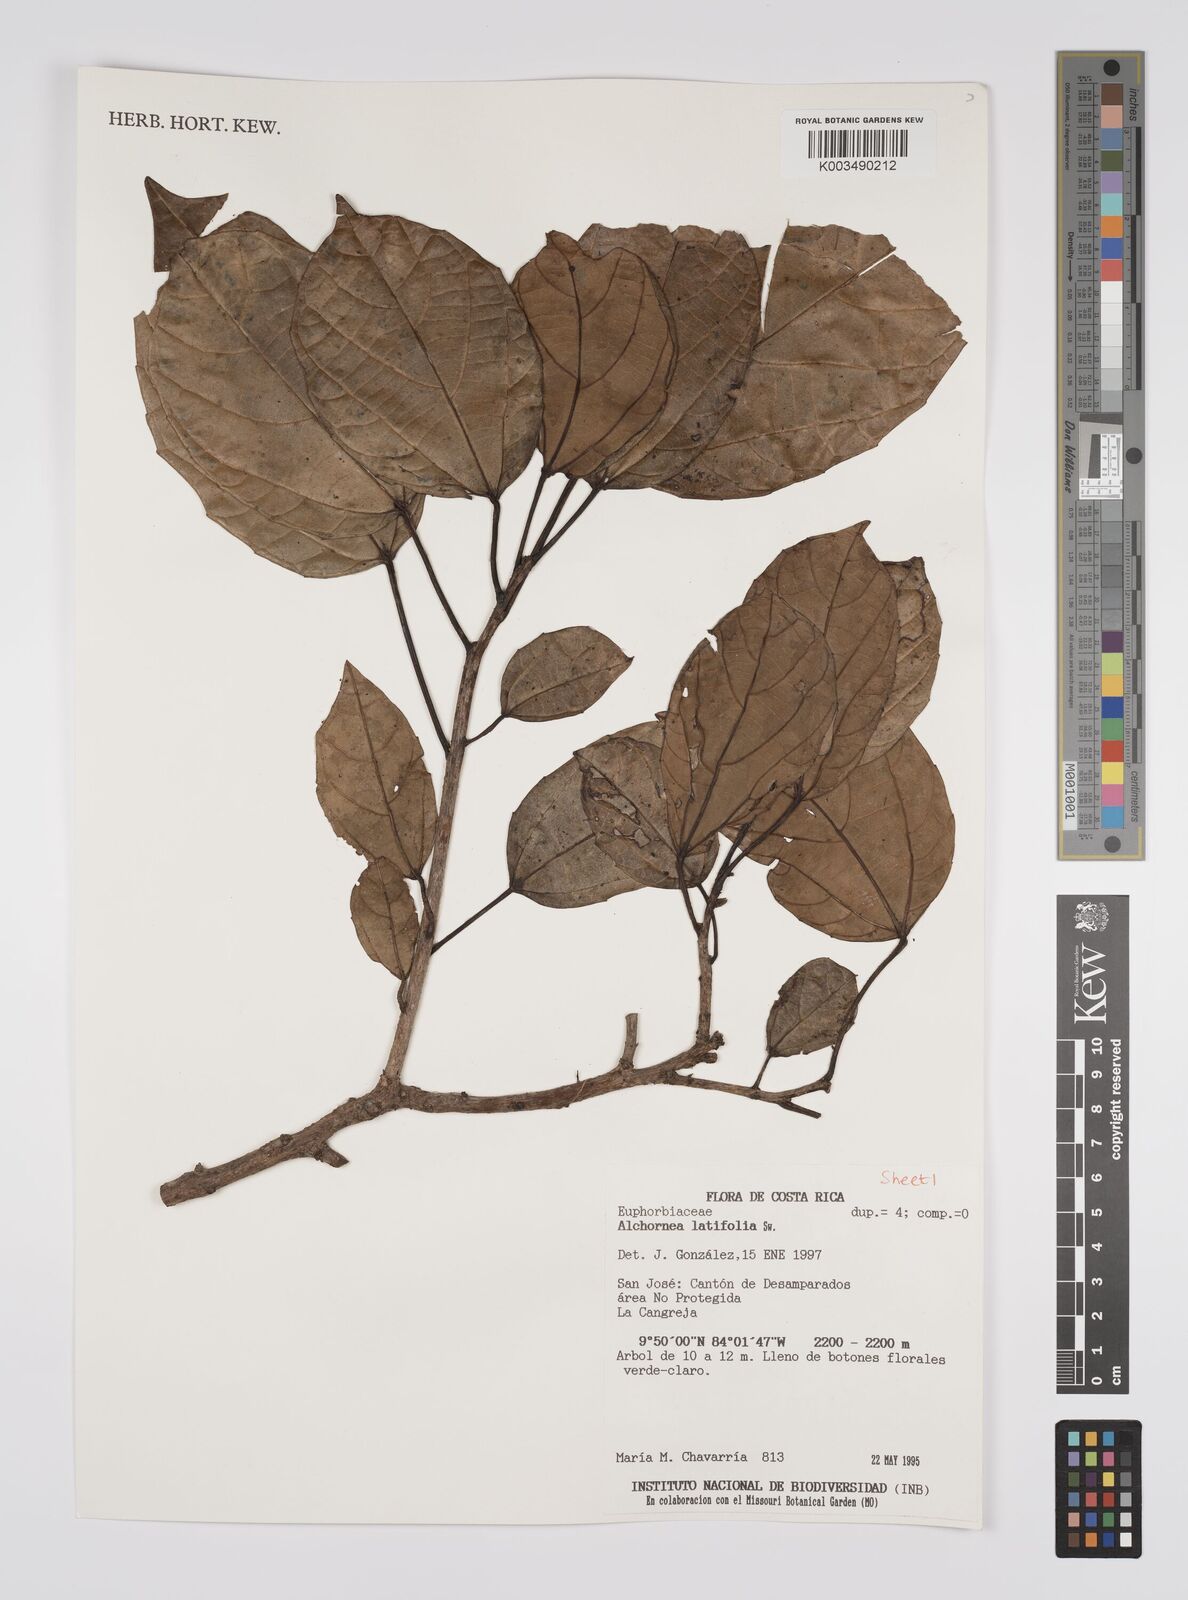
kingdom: Plantae
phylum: Tracheophyta
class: Magnoliopsida
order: Malpighiales
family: Euphorbiaceae
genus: Alchornea
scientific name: Alchornea latifolia
